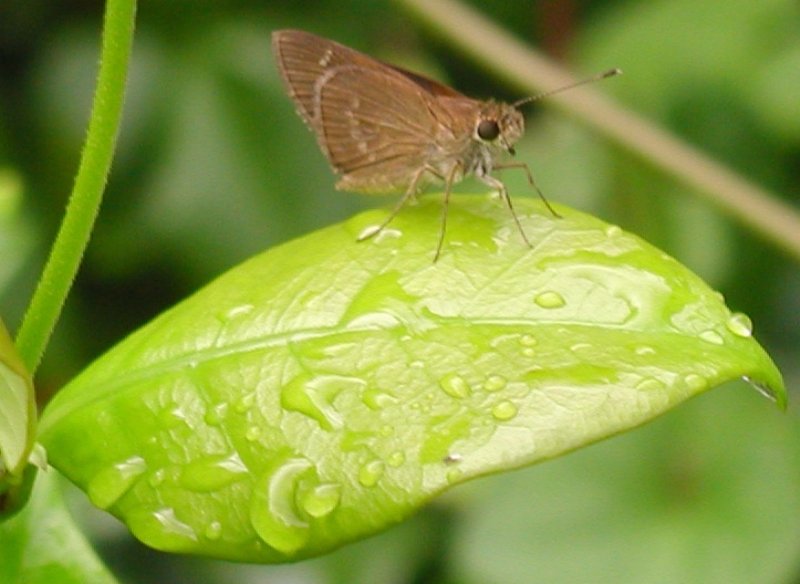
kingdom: Animalia
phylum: Arthropoda
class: Insecta
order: Lepidoptera
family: Hesperiidae
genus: Cymaenes
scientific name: Cymaenes tripunctus
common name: Three-spotted Skipper
